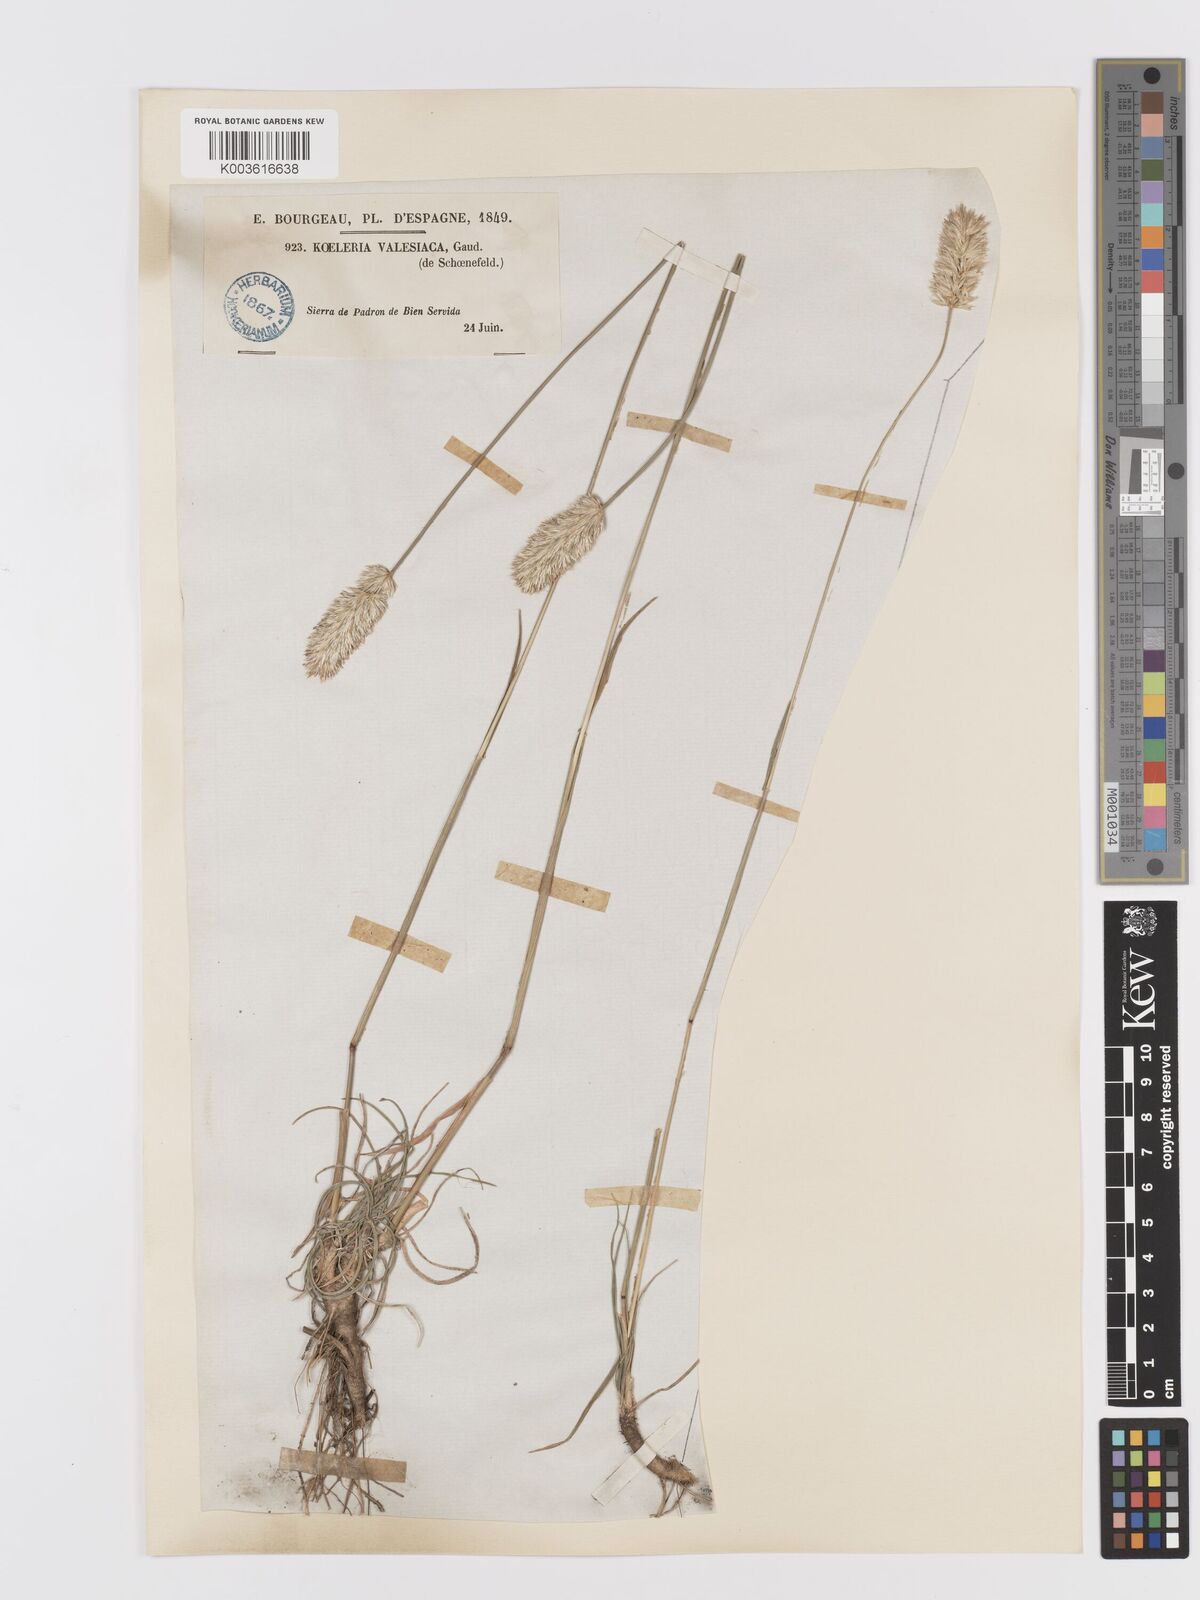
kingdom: Plantae
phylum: Tracheophyta
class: Liliopsida
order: Poales
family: Poaceae
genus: Koeleria
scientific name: Koeleria vallesiana
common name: Somerset hair-grass
